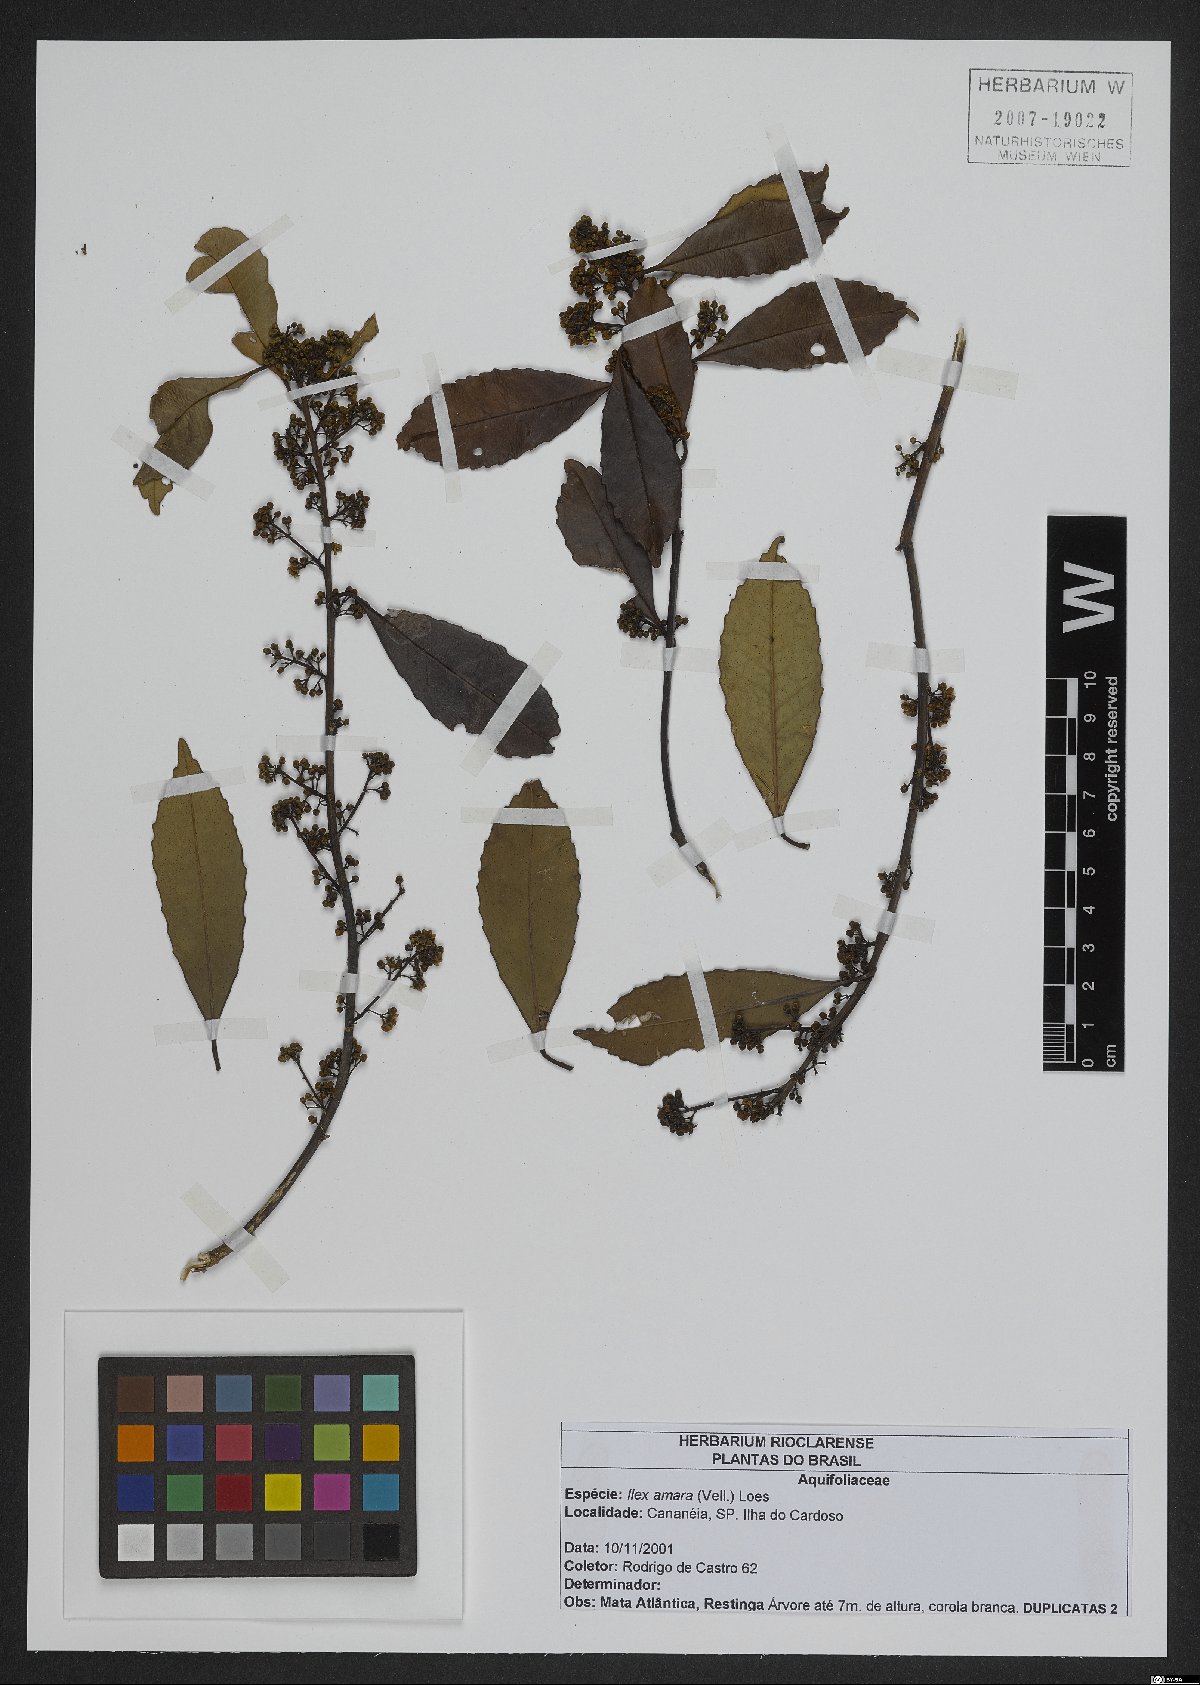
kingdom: Plantae
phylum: Tracheophyta
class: Magnoliopsida
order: Aquifoliales
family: Aquifoliaceae
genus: Ilex
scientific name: Ilex dumosa
